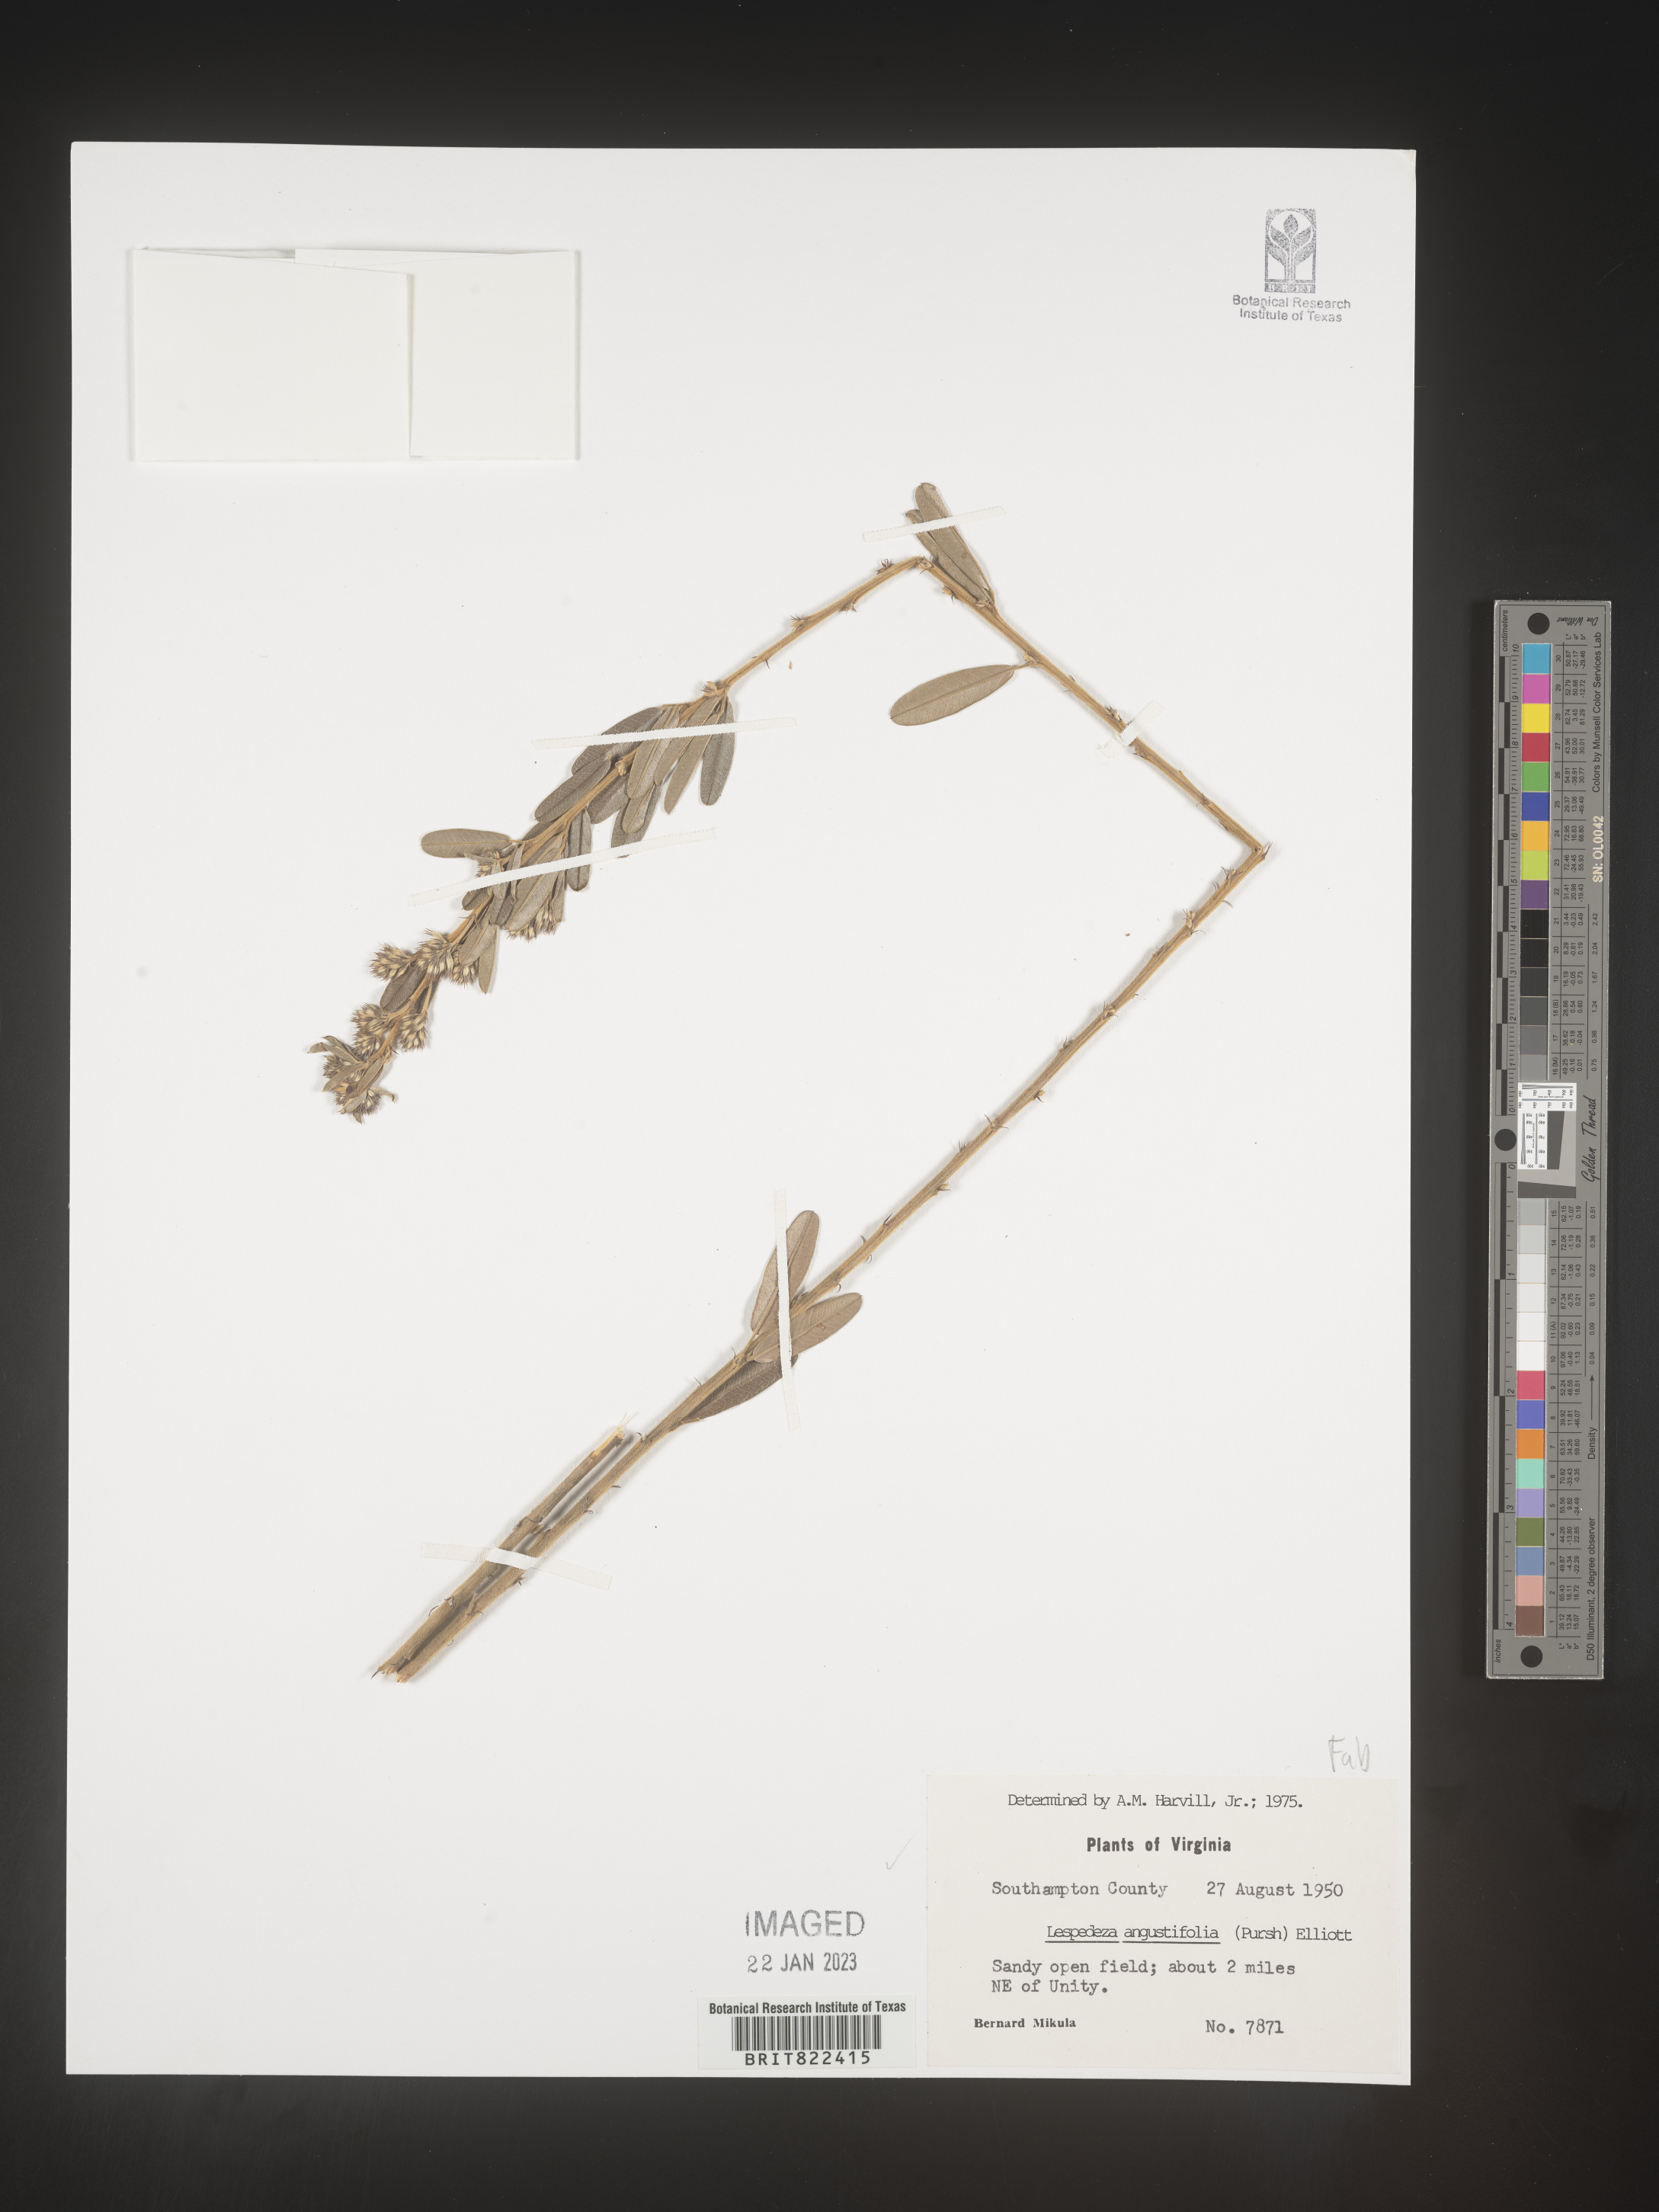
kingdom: Plantae
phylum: Tracheophyta
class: Magnoliopsida
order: Fabales
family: Fabaceae
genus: Lespedeza
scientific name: Lespedeza
